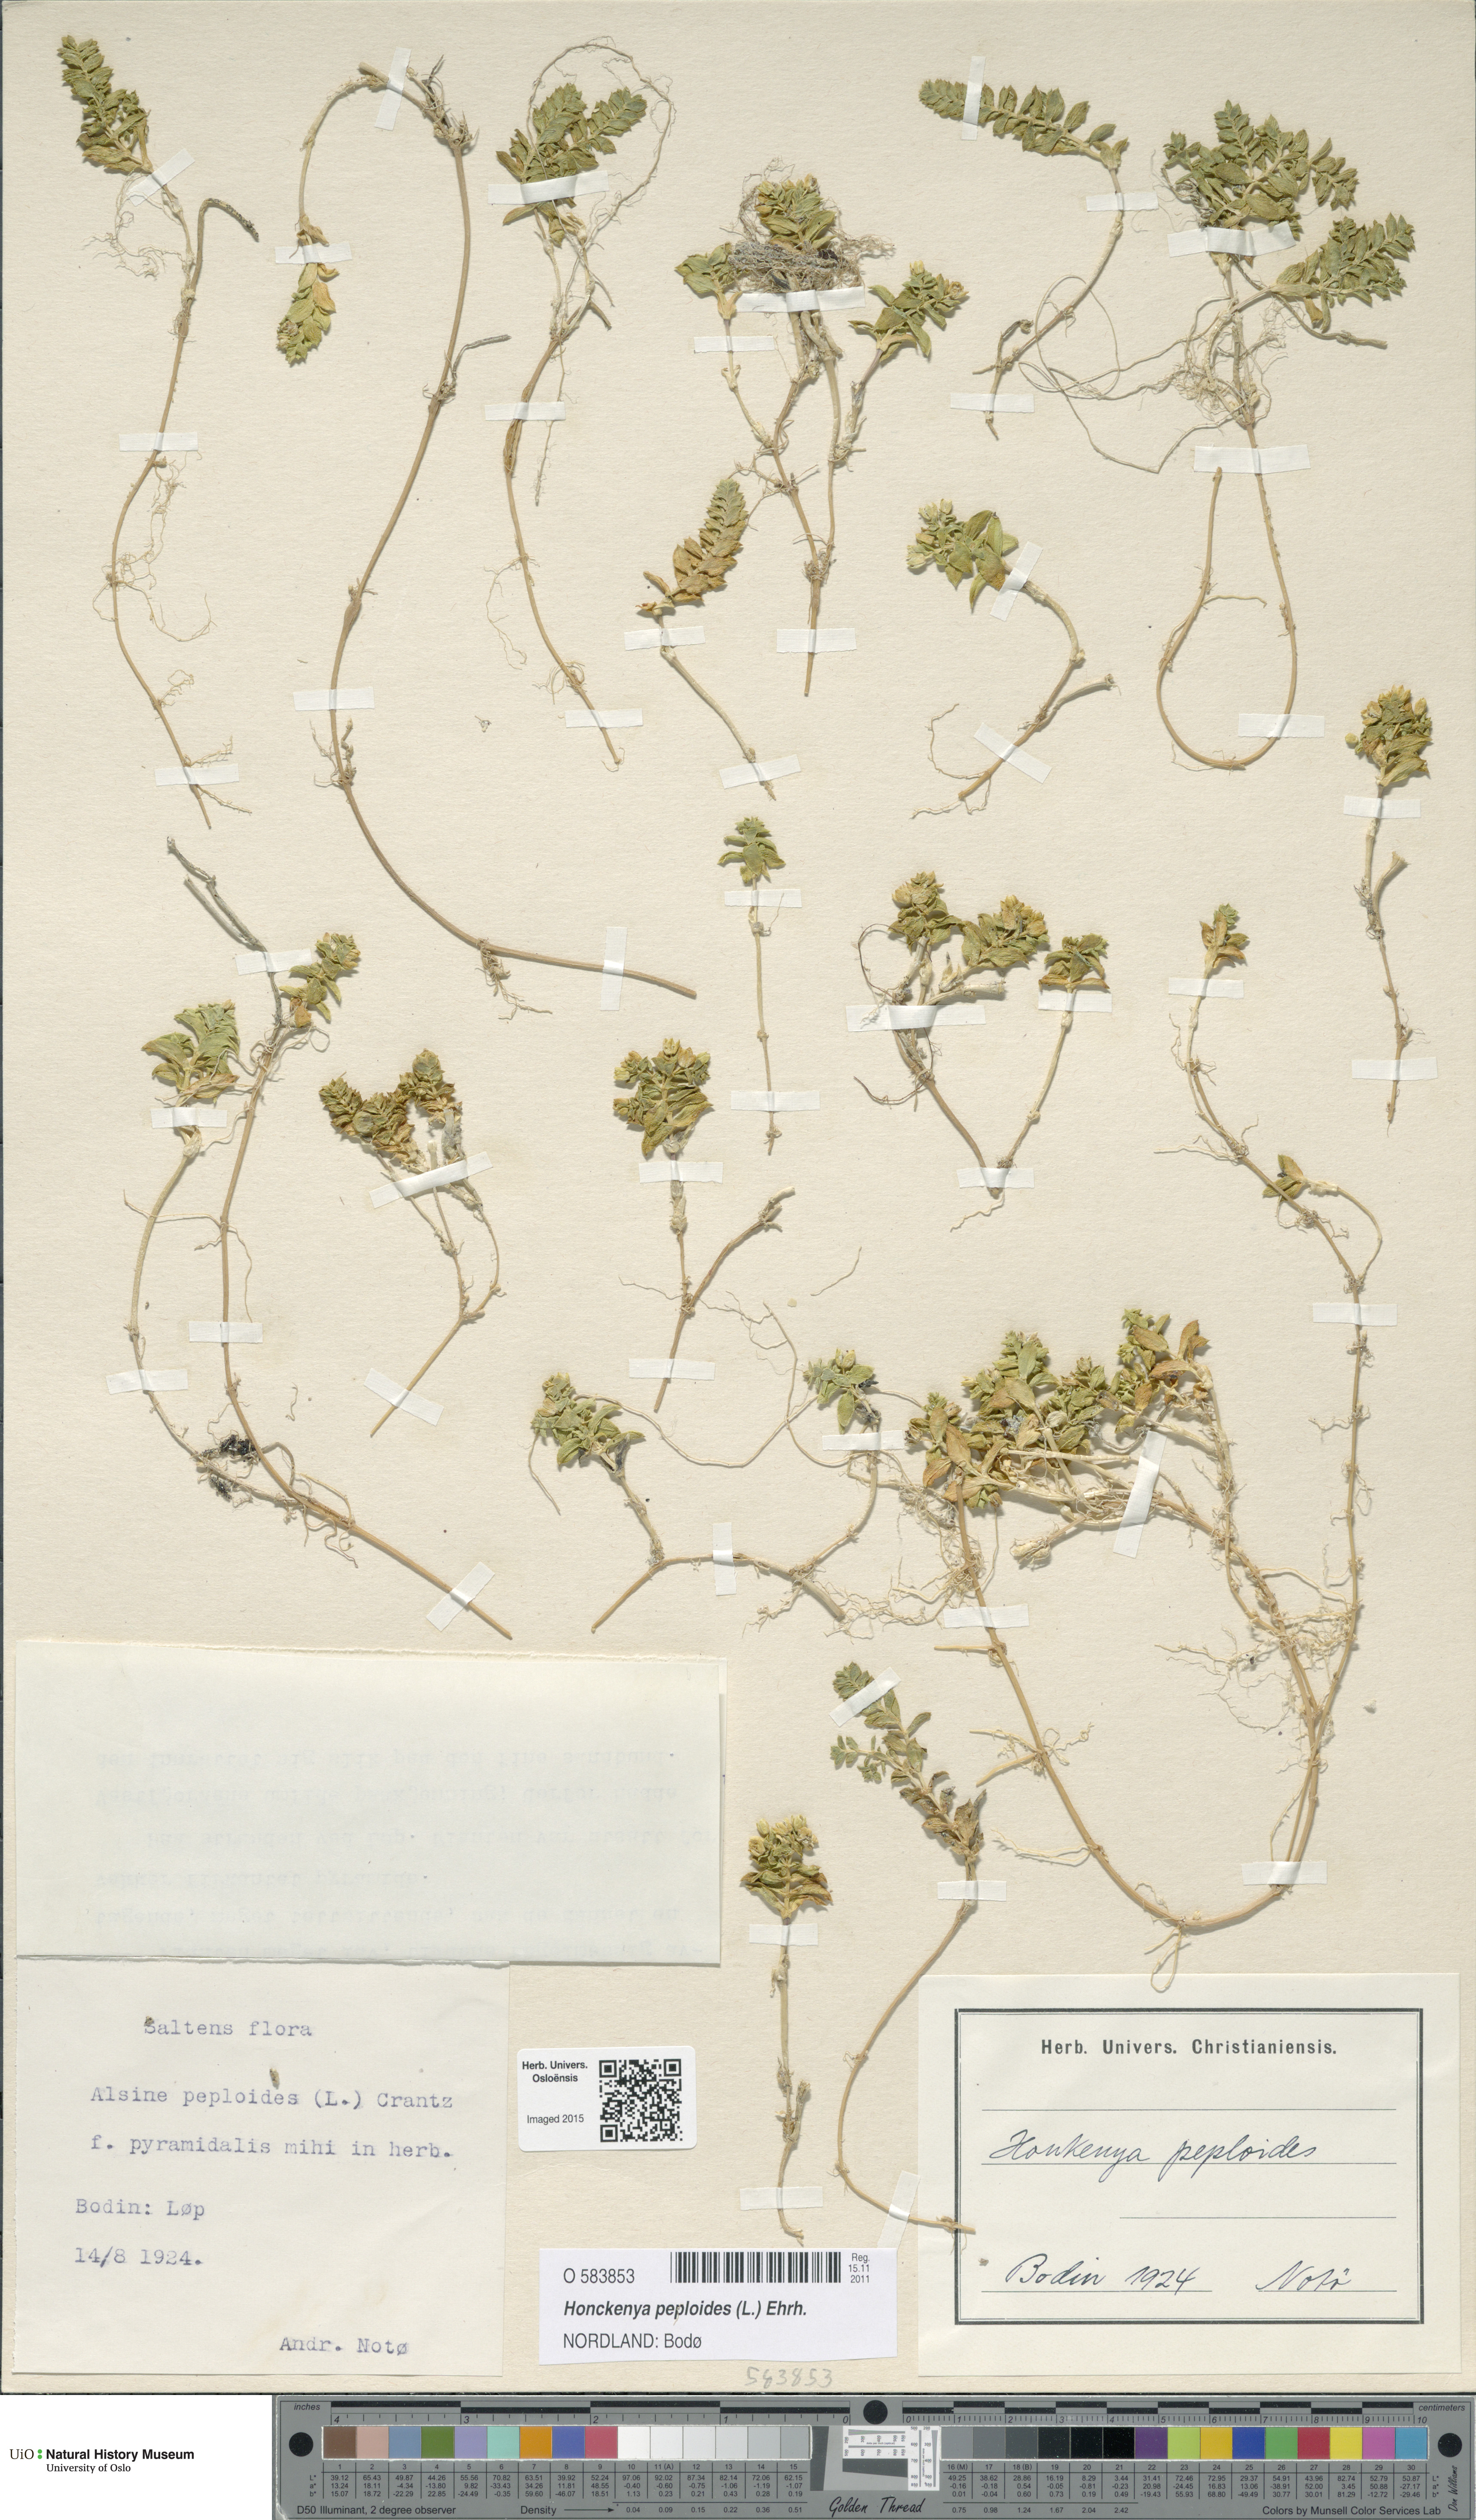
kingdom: Plantae
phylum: Tracheophyta
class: Magnoliopsida
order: Caryophyllales
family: Caryophyllaceae
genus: Honckenya
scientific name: Honckenya peploides
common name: Sea sandwort
